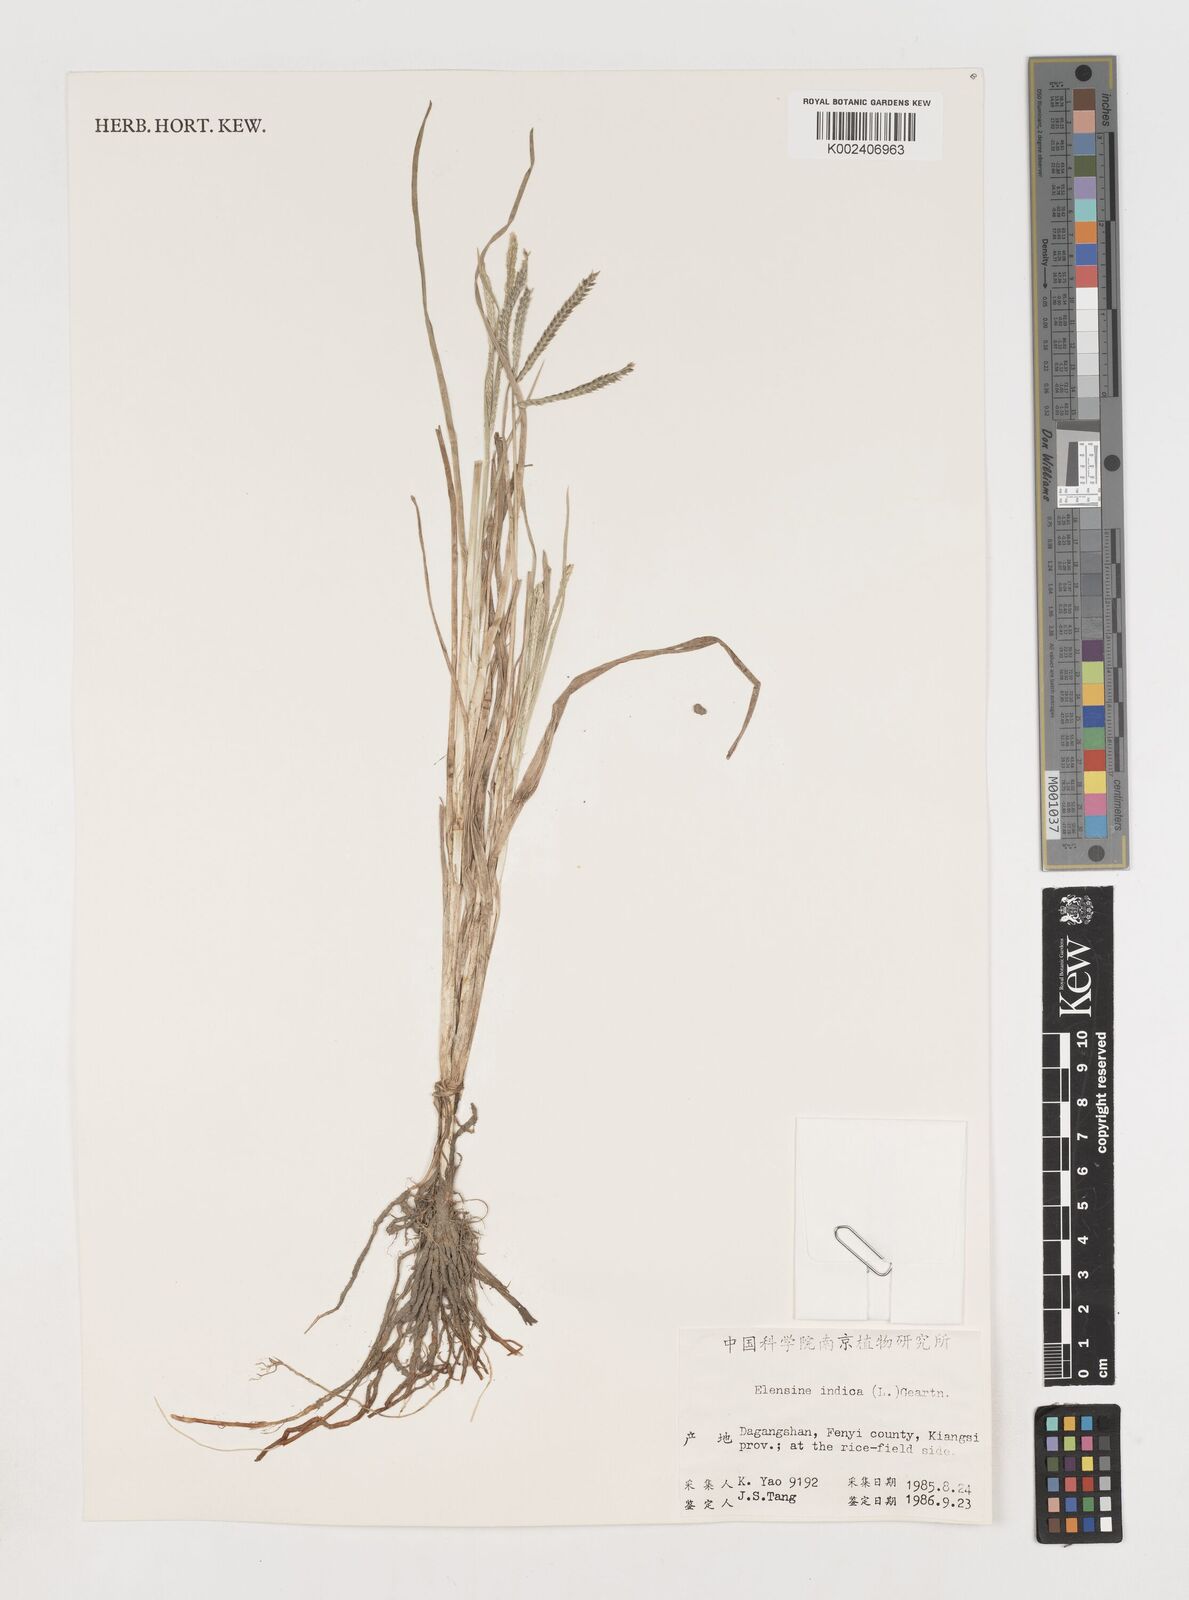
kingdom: Plantae
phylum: Tracheophyta
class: Liliopsida
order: Poales
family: Poaceae
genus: Eleusine
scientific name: Eleusine indica
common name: Yard-grass
